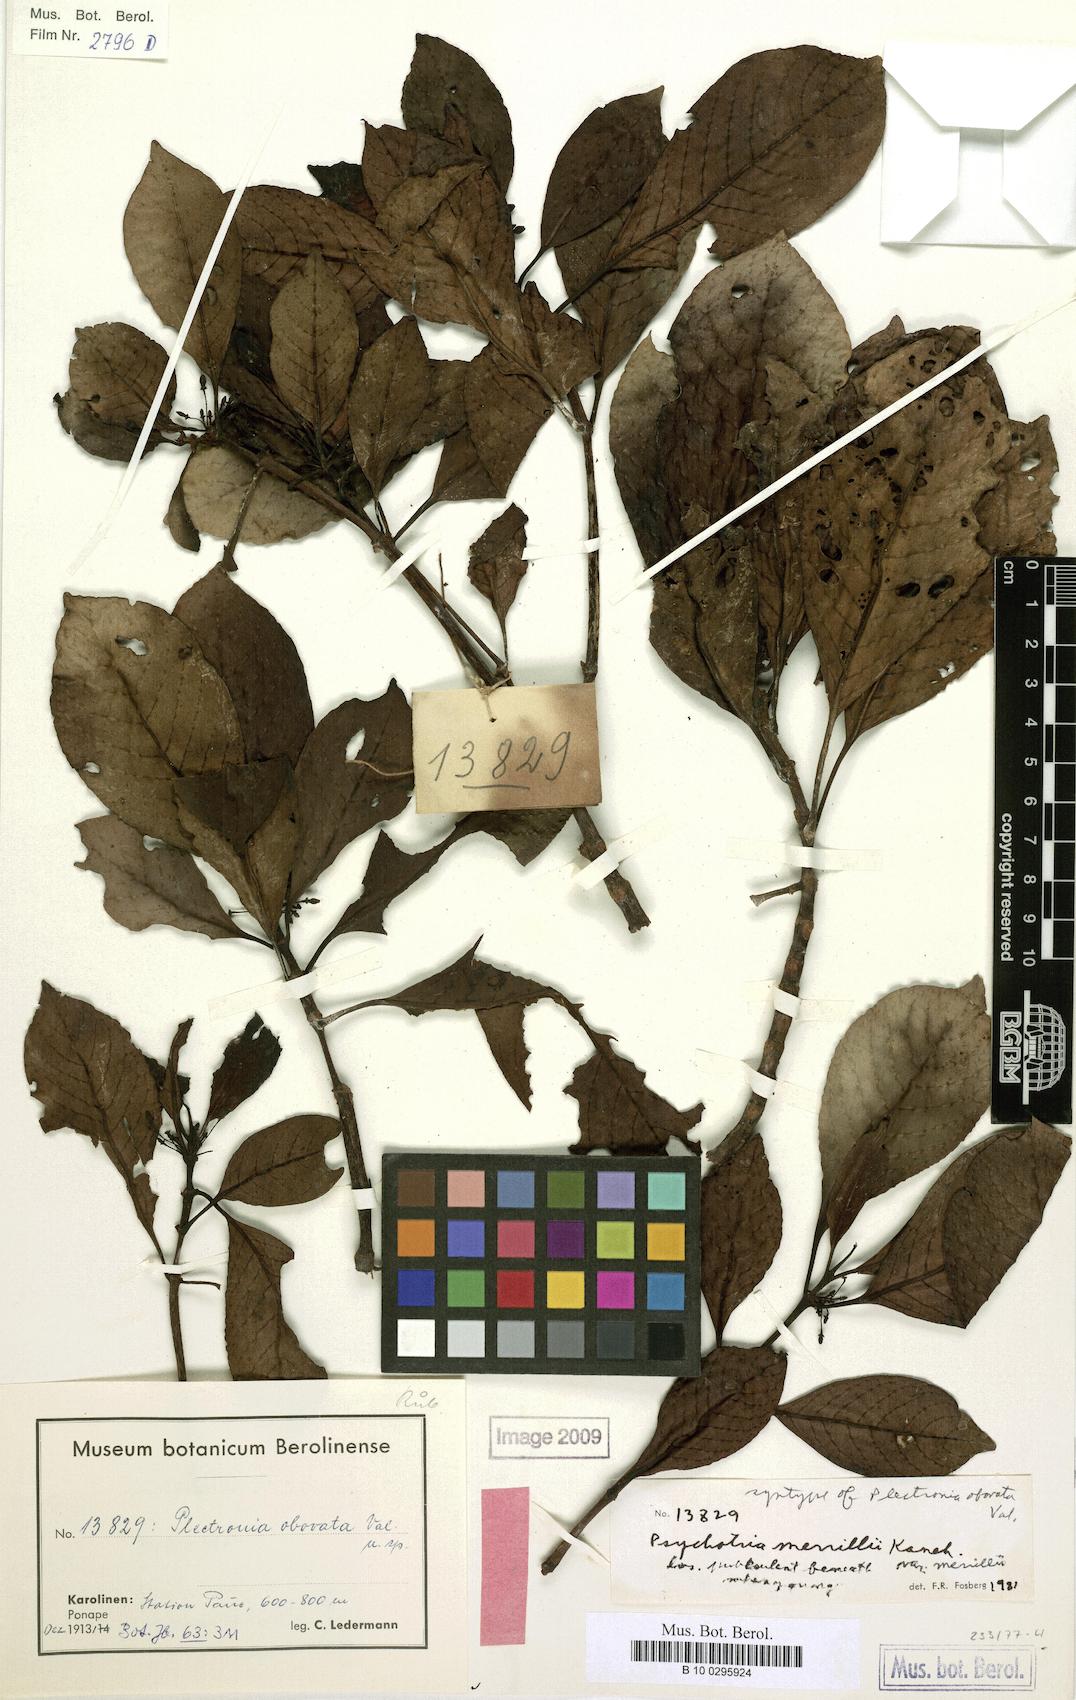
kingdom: Plantae
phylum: Tracheophyta
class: Magnoliopsida
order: Gentianales
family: Rubiaceae
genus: Psychotria
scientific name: Psychotria merrillii
